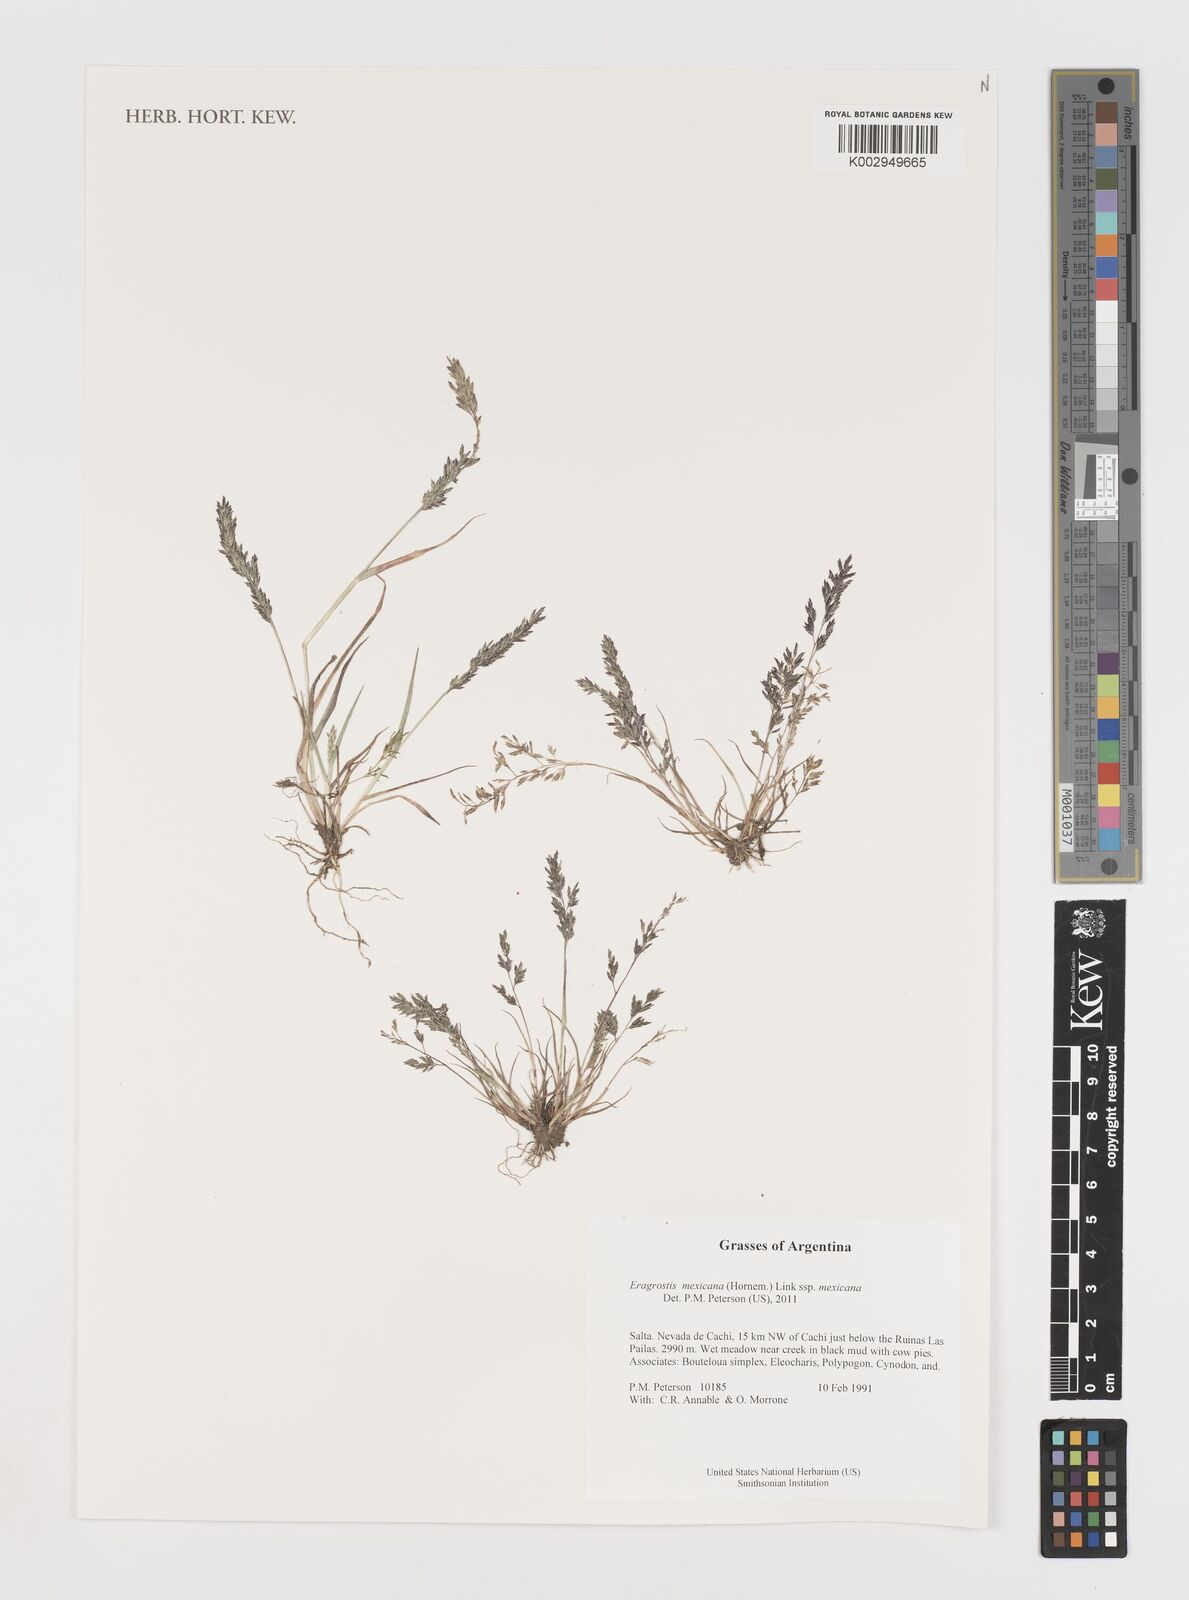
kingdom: Plantae
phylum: Tracheophyta
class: Liliopsida
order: Poales
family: Poaceae
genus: Eragrostis
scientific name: Eragrostis mexicana
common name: Mexican love grass
